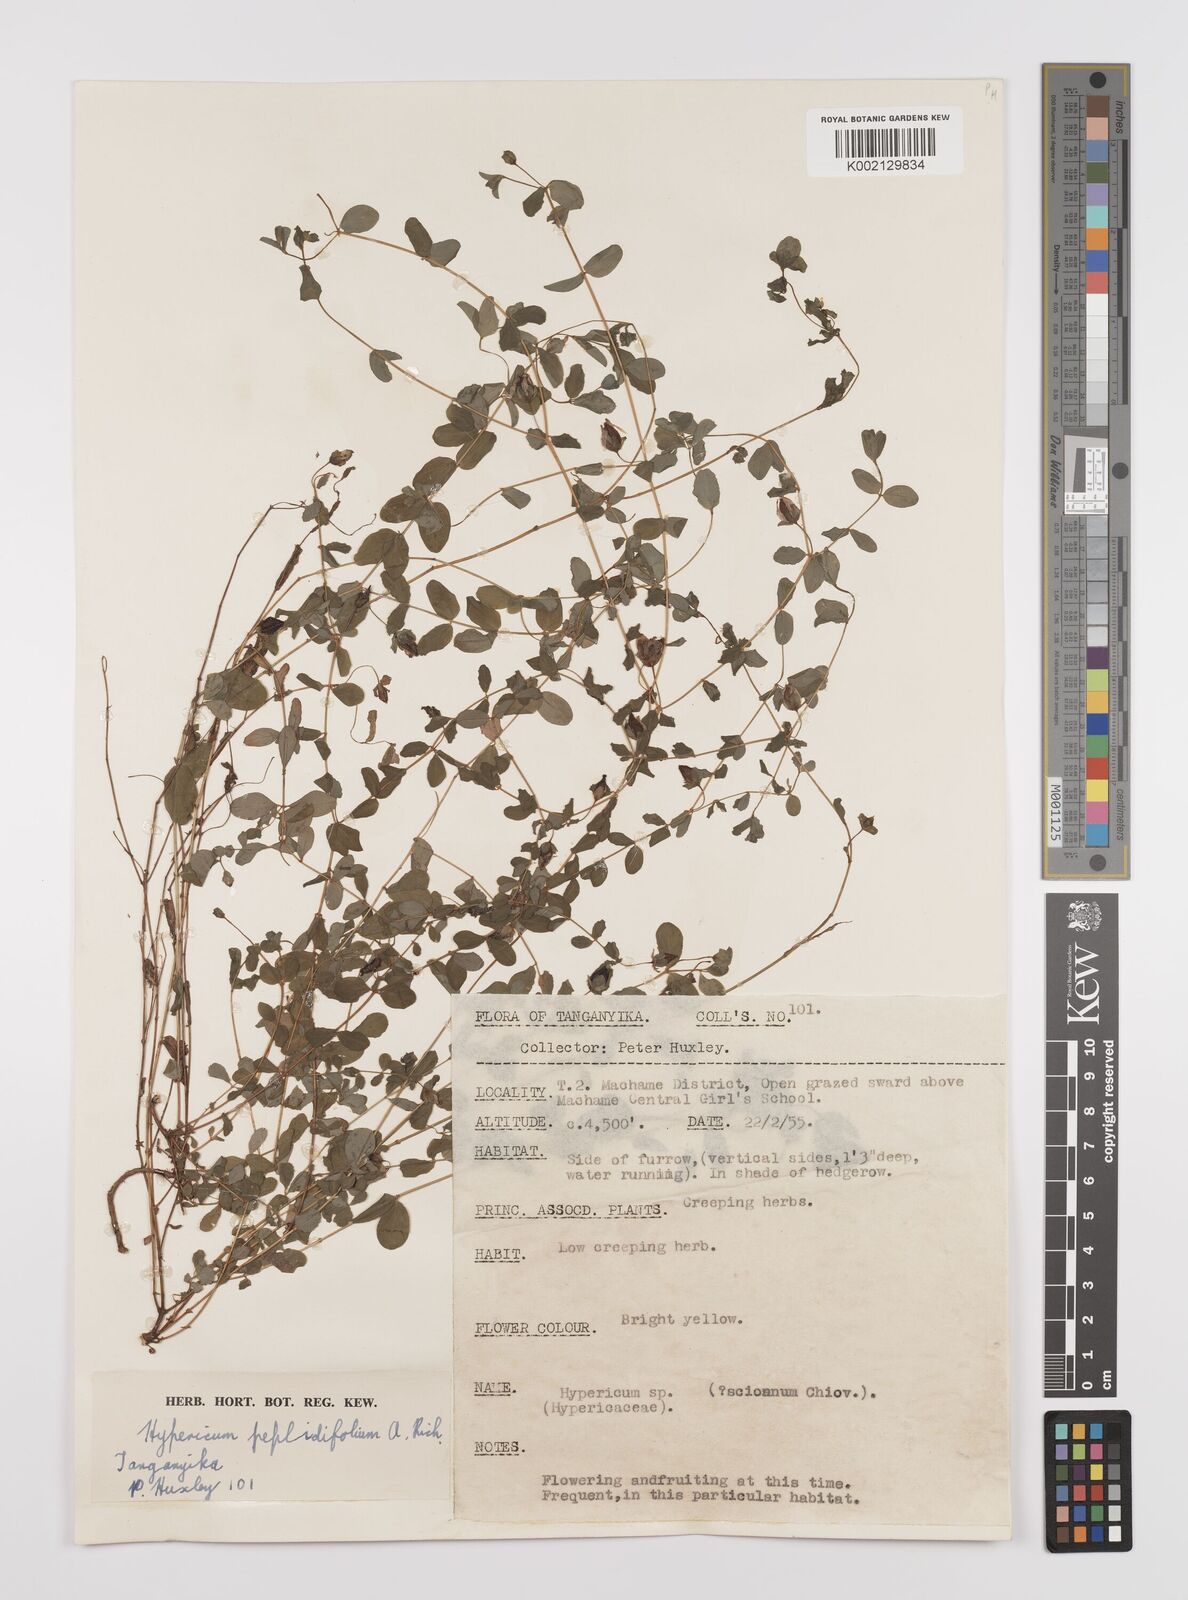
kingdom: Plantae
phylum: Tracheophyta
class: Magnoliopsida
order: Malpighiales
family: Hypericaceae
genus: Hypericum
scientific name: Hypericum peplidifolium
